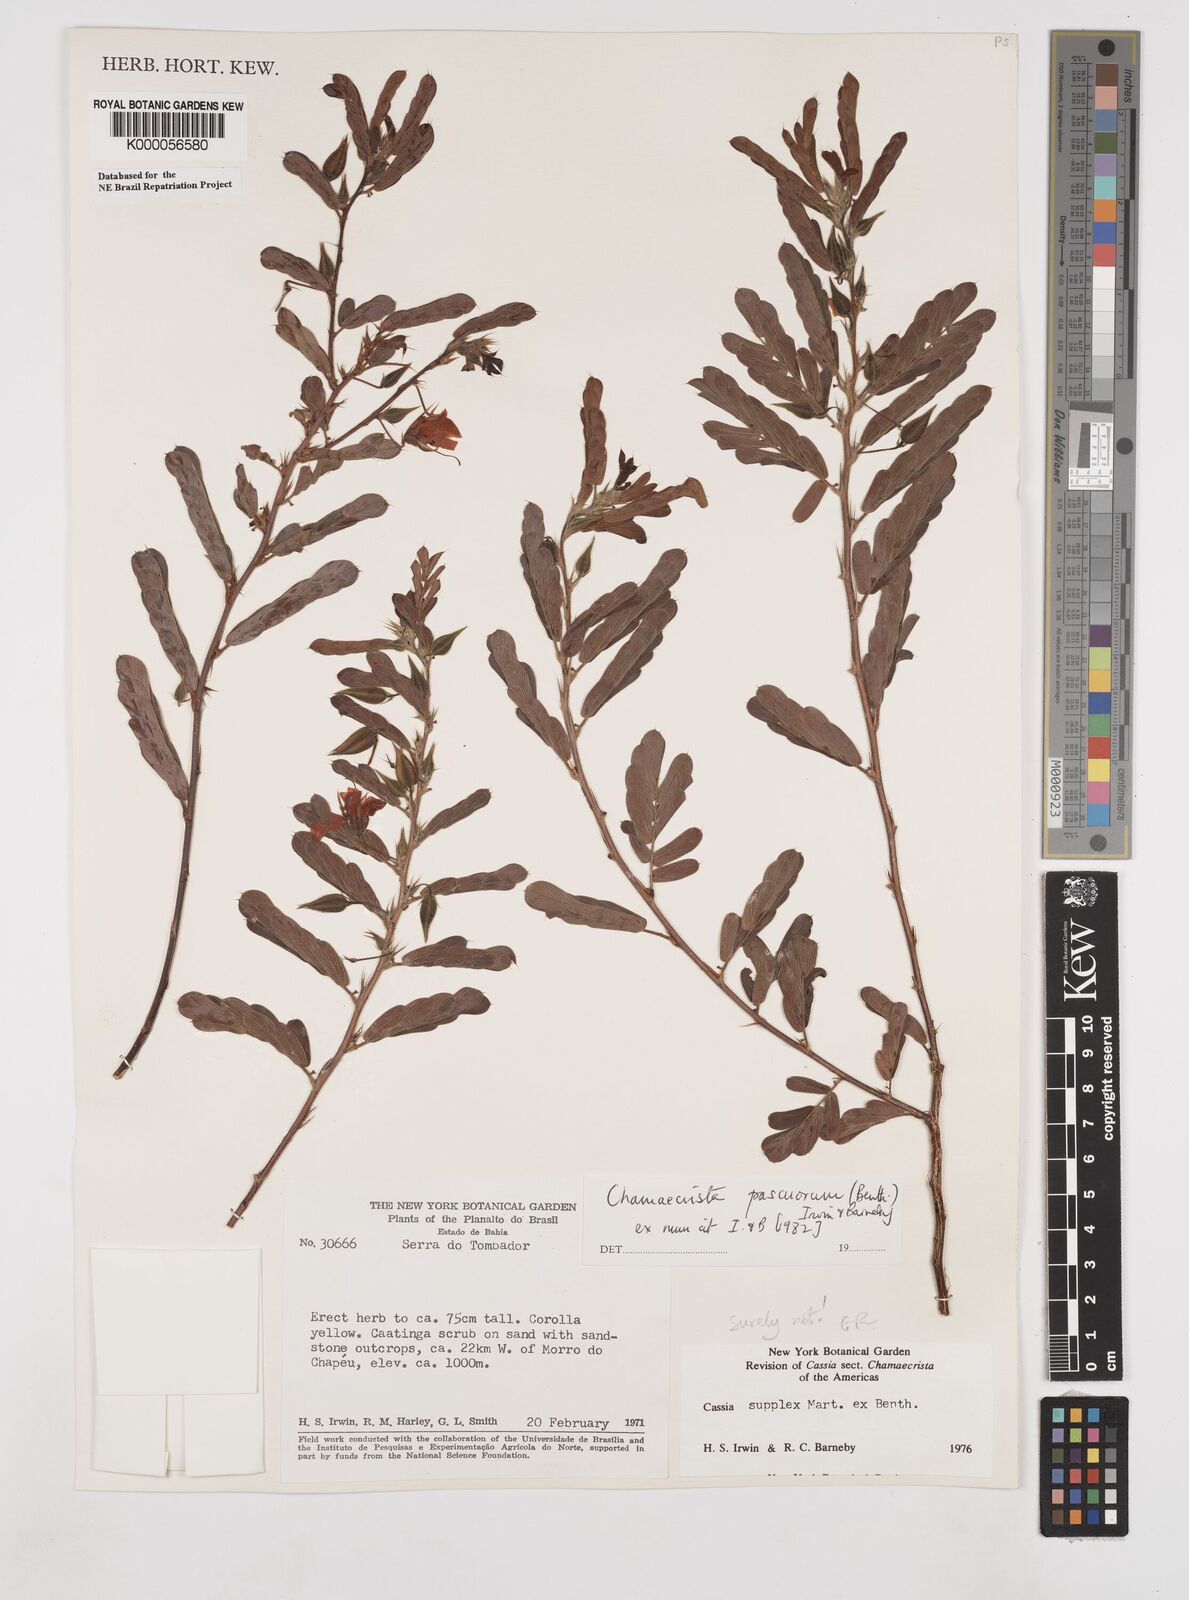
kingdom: Plantae
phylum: Tracheophyta
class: Magnoliopsida
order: Fabales
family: Fabaceae
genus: Chamaecrista
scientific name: Chamaecrista pascuorum
